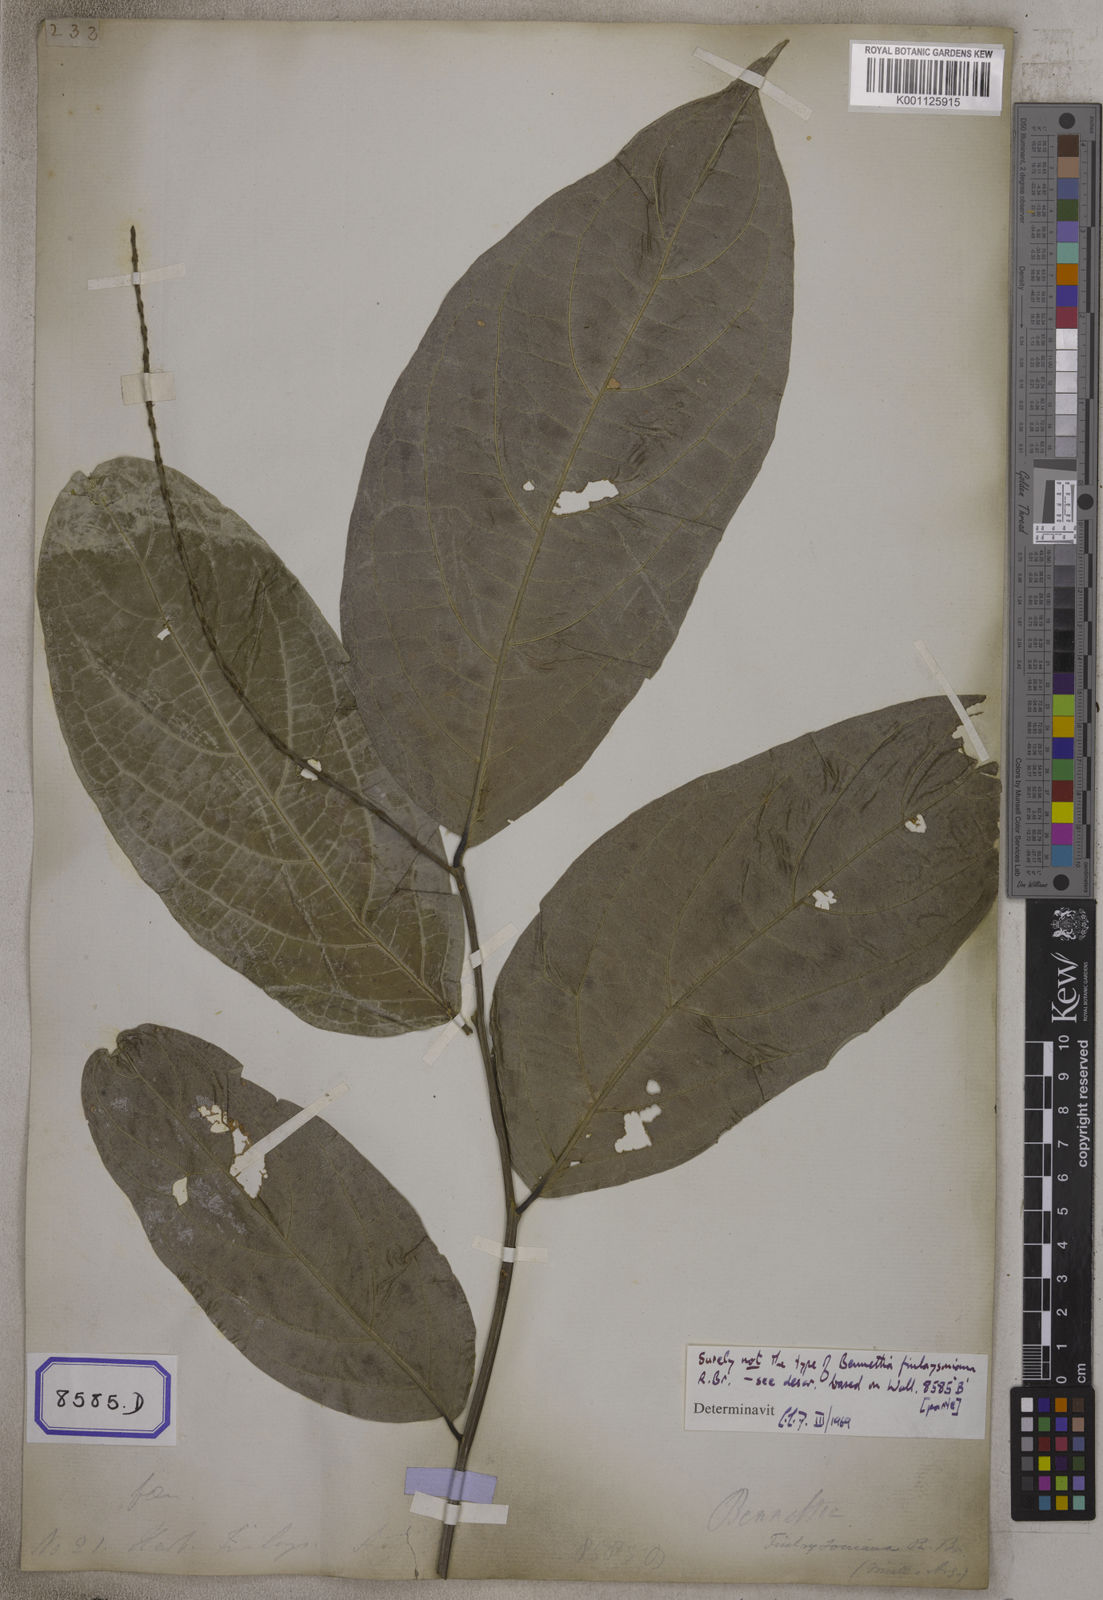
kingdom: Plantae
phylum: Tracheophyta
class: Magnoliopsida
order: Malpighiales
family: Pandaceae
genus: Galearia
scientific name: Galearia
